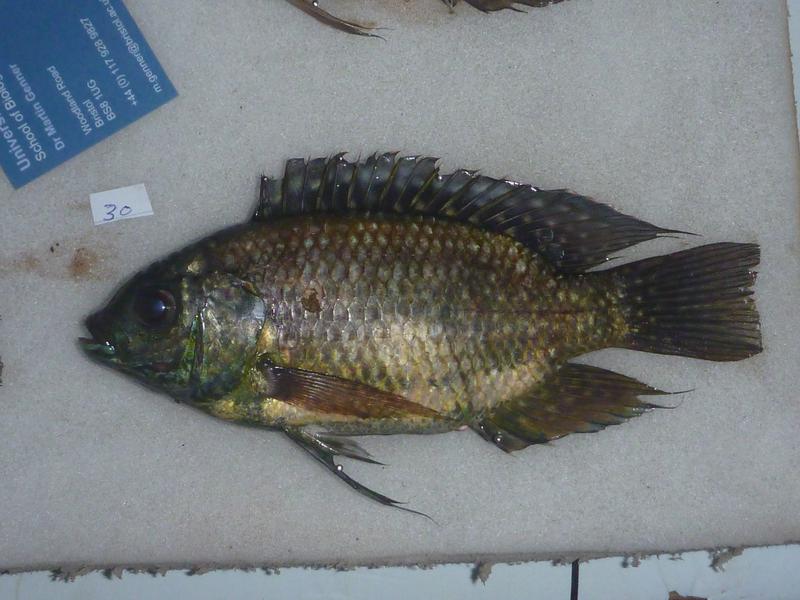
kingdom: Animalia
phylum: Chordata
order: Perciformes
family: Cichlidae
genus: Oreochromis
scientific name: Oreochromis leucostictus
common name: Blue spotted tilapia
